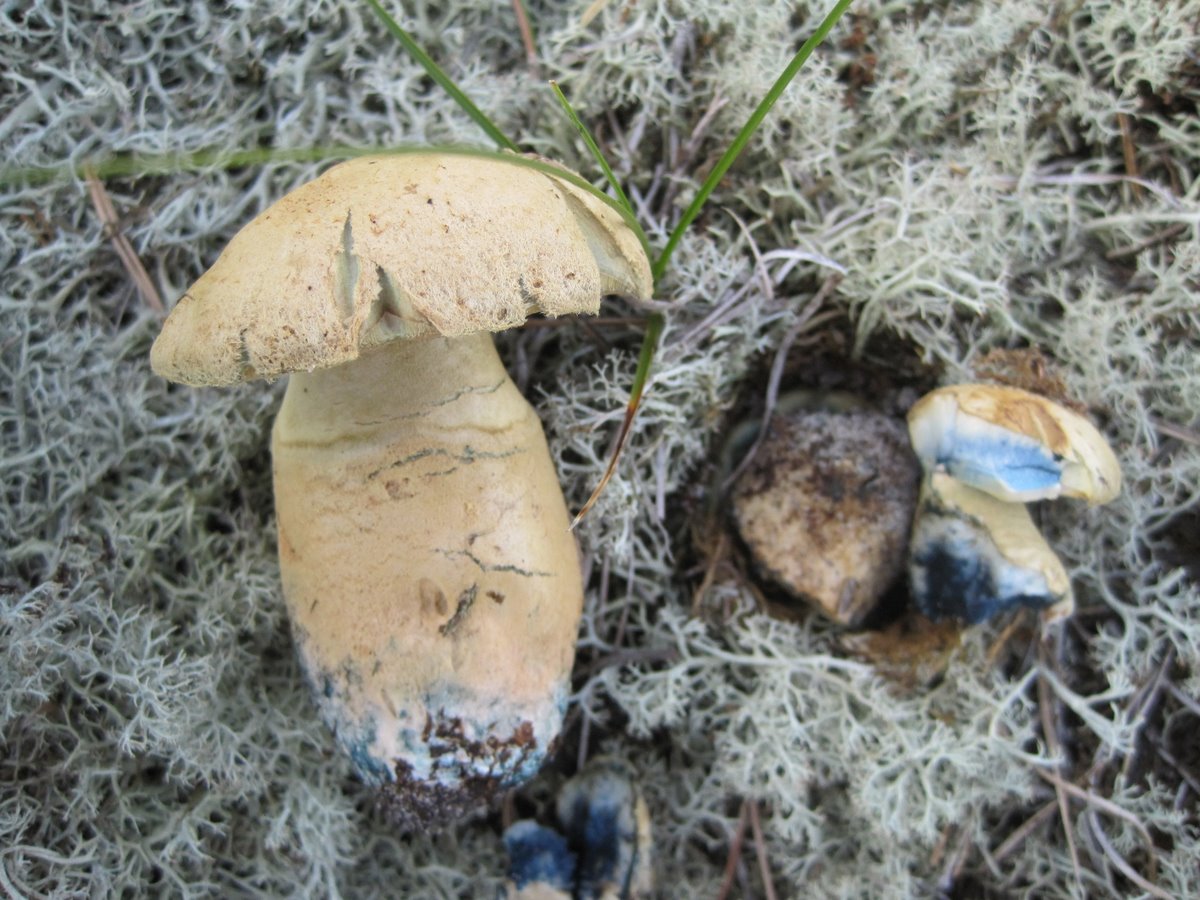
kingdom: Fungi
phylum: Basidiomycota
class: Agaricomycetes
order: Boletales
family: Gyroporaceae
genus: Gyroporus
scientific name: Gyroporus cyanescens
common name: blånende kammerrørhat
